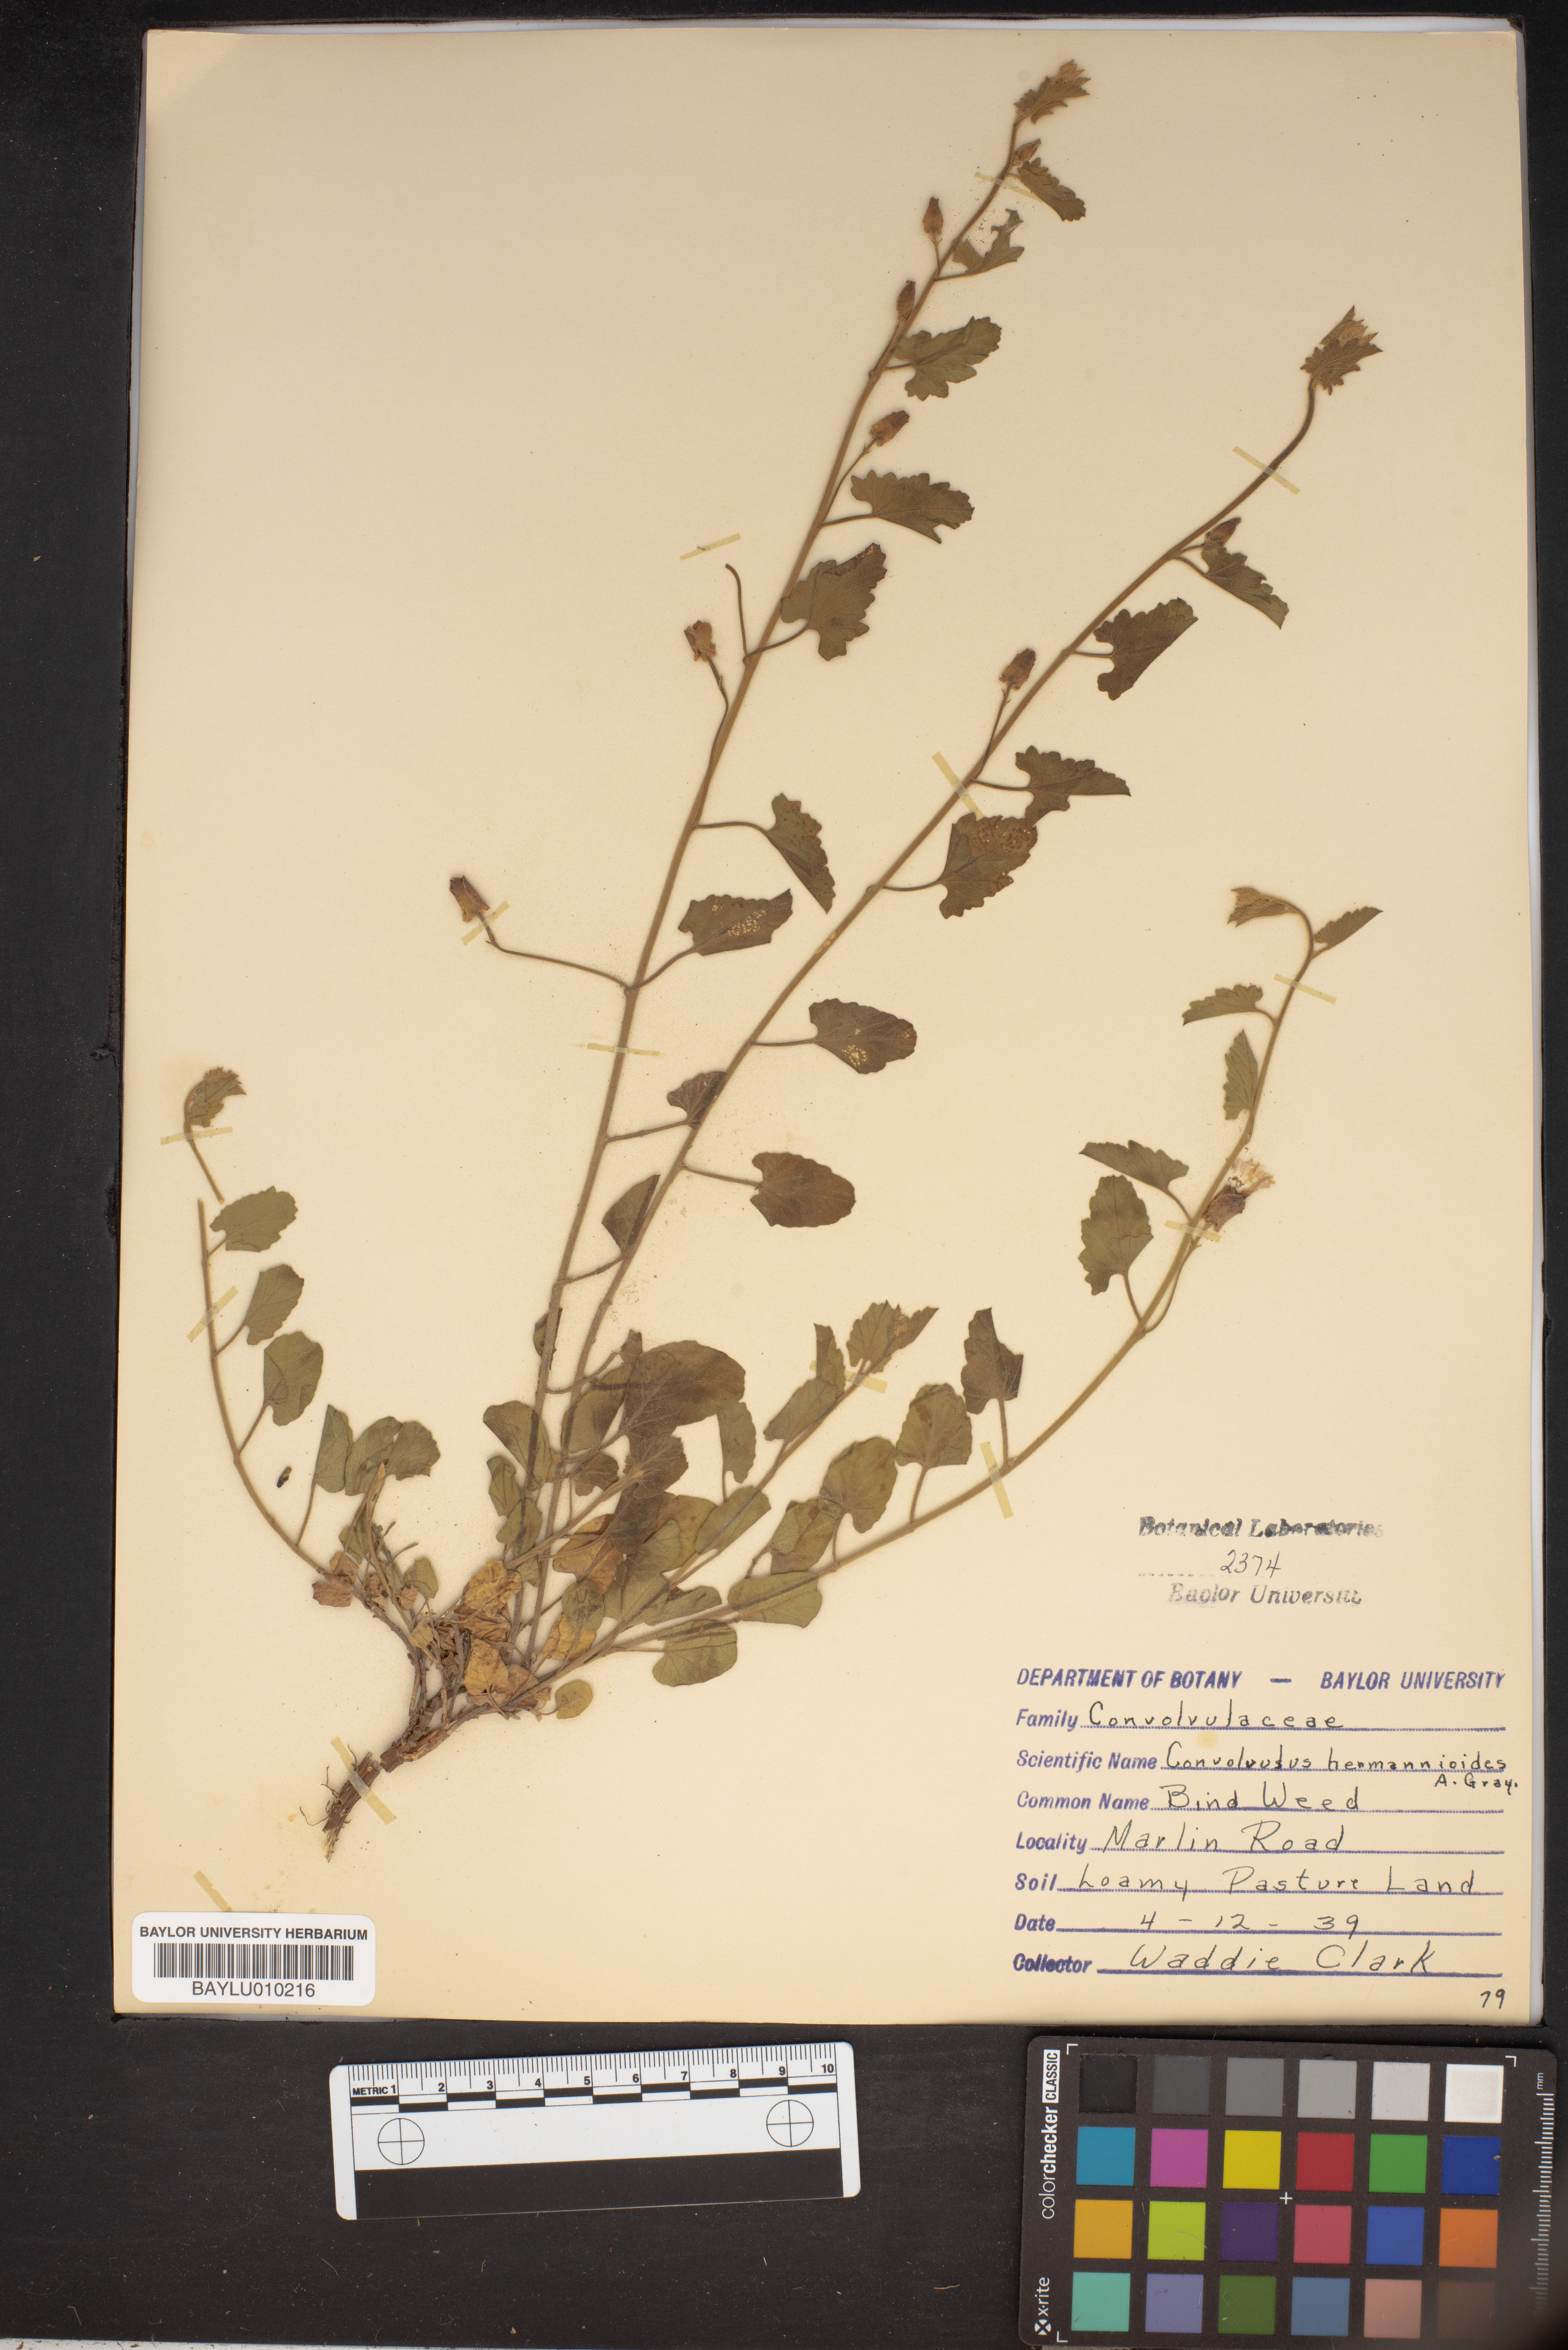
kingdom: Plantae
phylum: Tracheophyta
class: Magnoliopsida
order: Solanales
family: Convolvulaceae
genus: Convolvulus
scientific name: Convolvulus equitans
